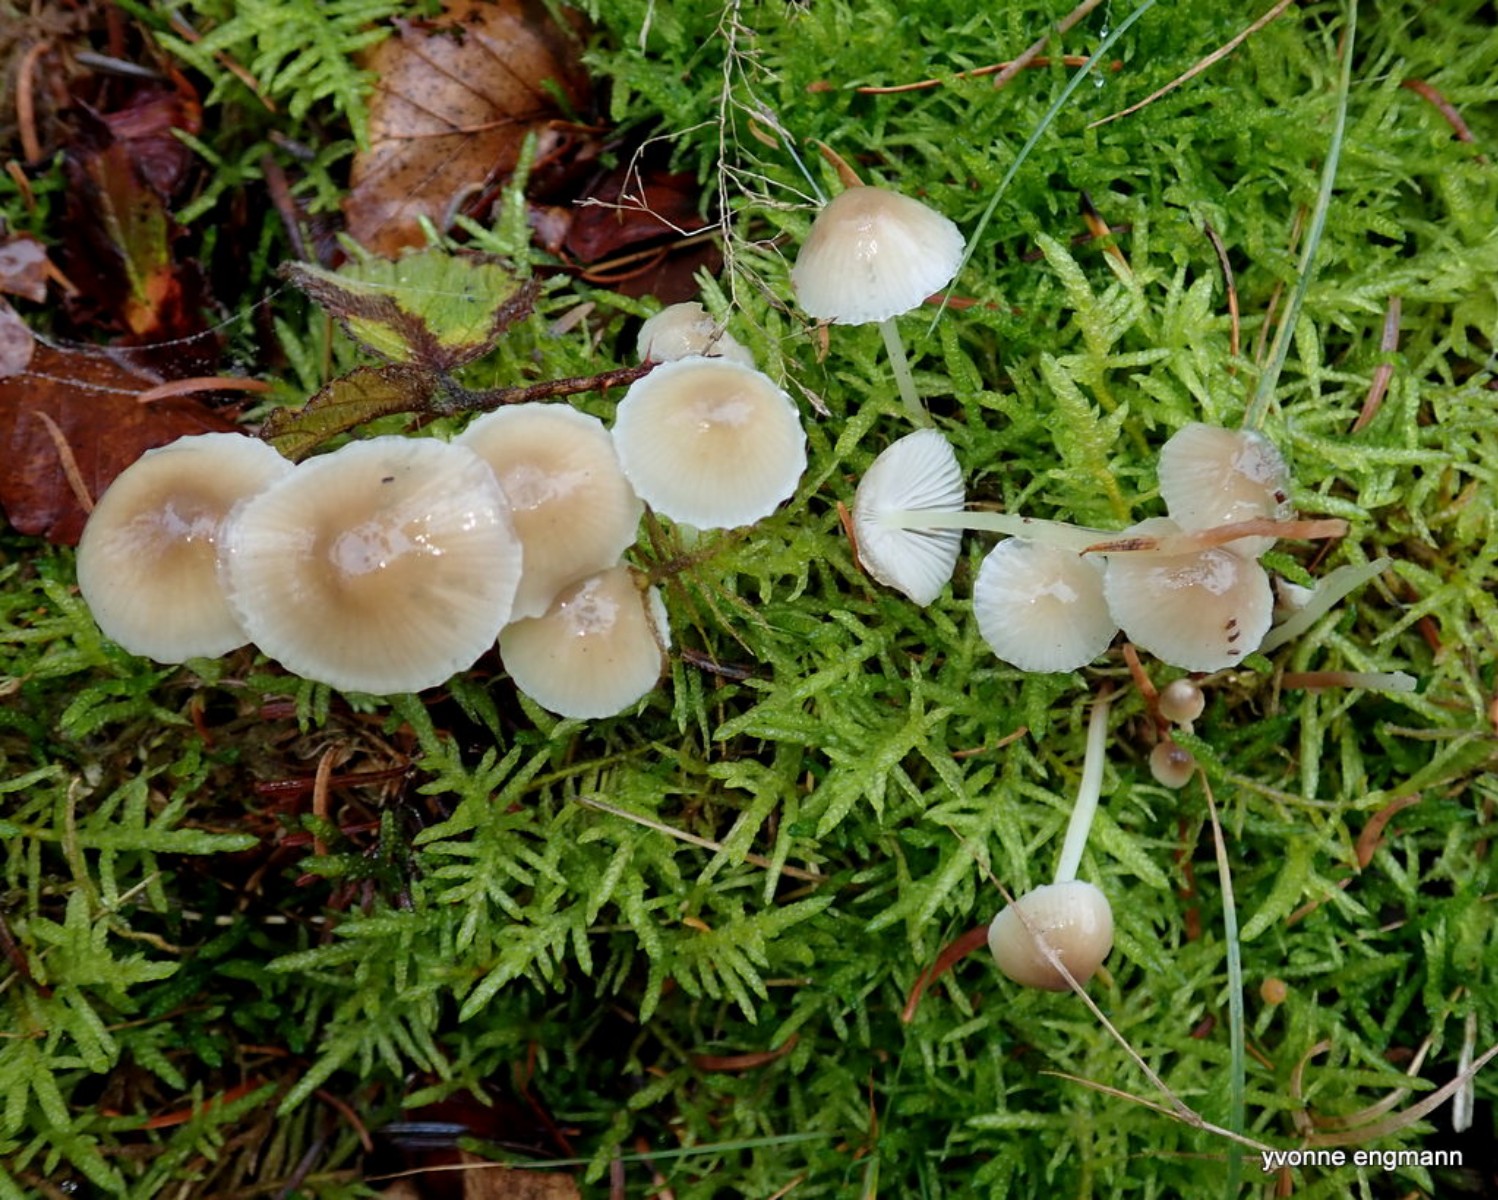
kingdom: Fungi
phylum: Basidiomycota
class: Agaricomycetes
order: Agaricales
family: Mycenaceae
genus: Mycena
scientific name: Mycena epipterygia
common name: gulstokket huesvamp
